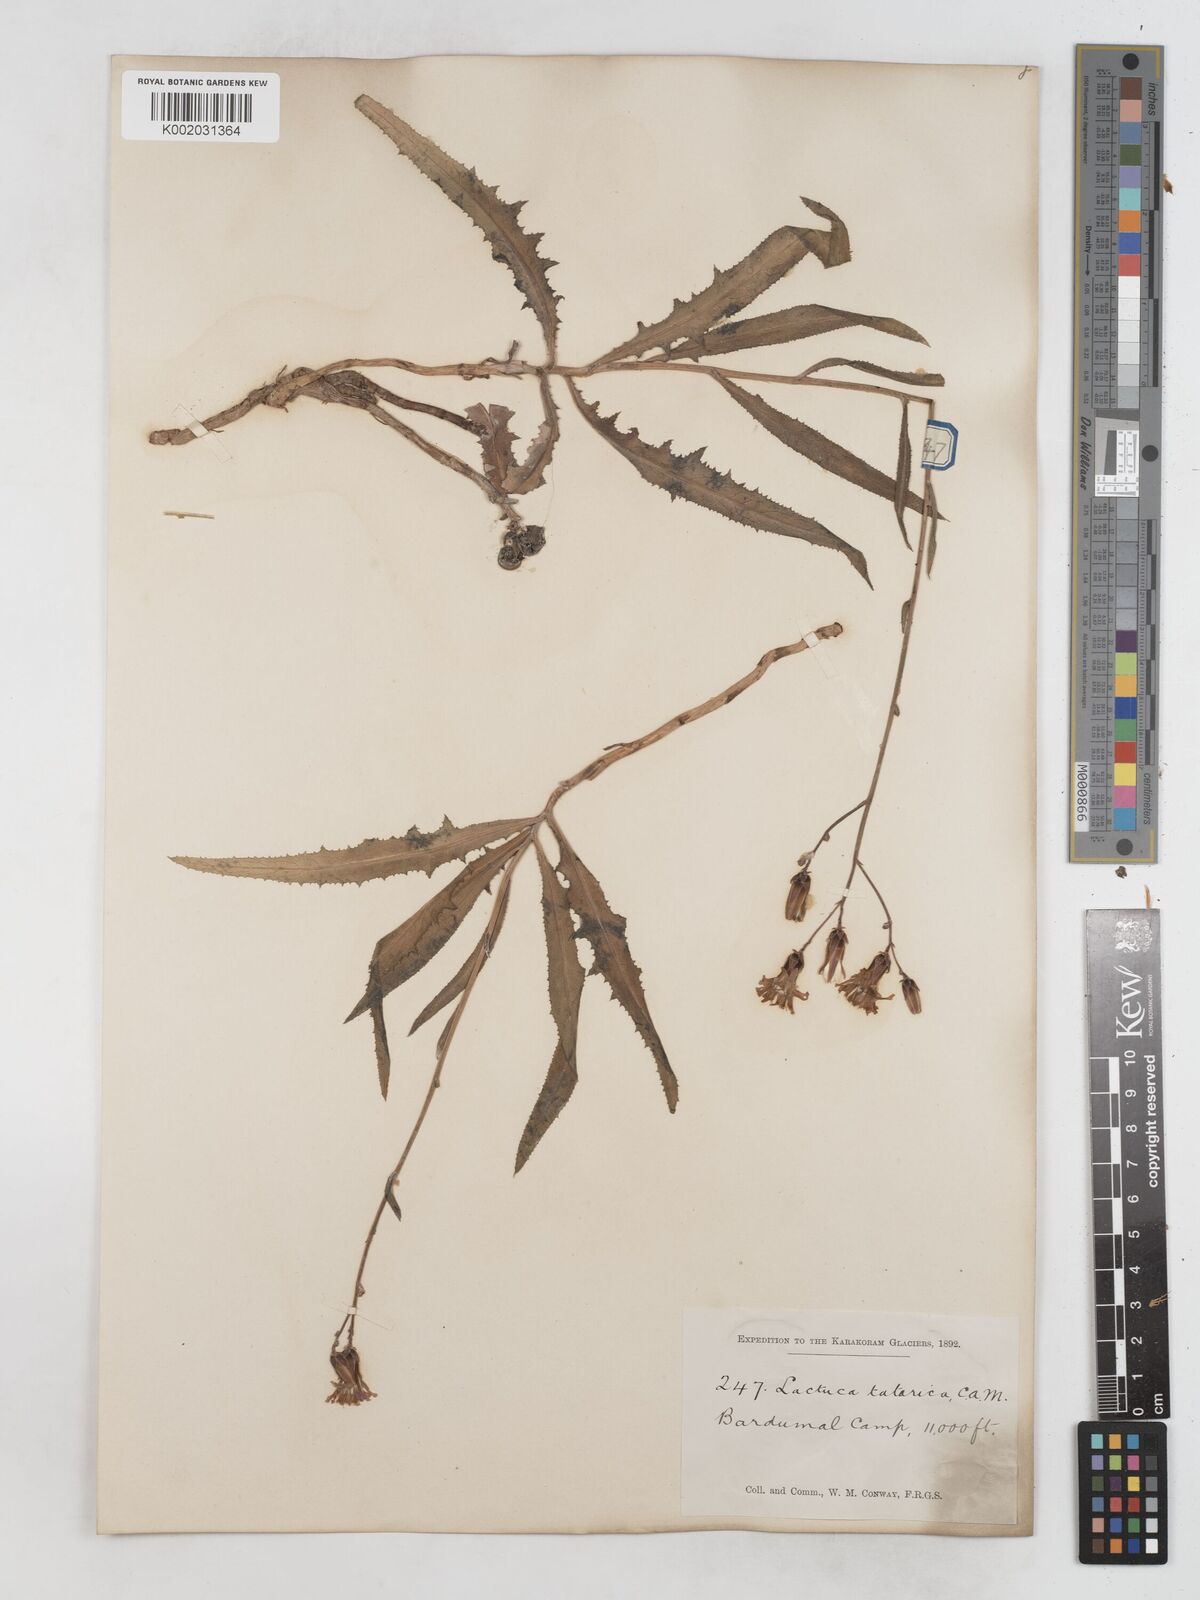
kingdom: Plantae
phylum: Tracheophyta
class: Magnoliopsida
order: Asterales
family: Asteraceae
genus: Lactuca
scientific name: Lactuca tatarica
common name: Blue lettuce
